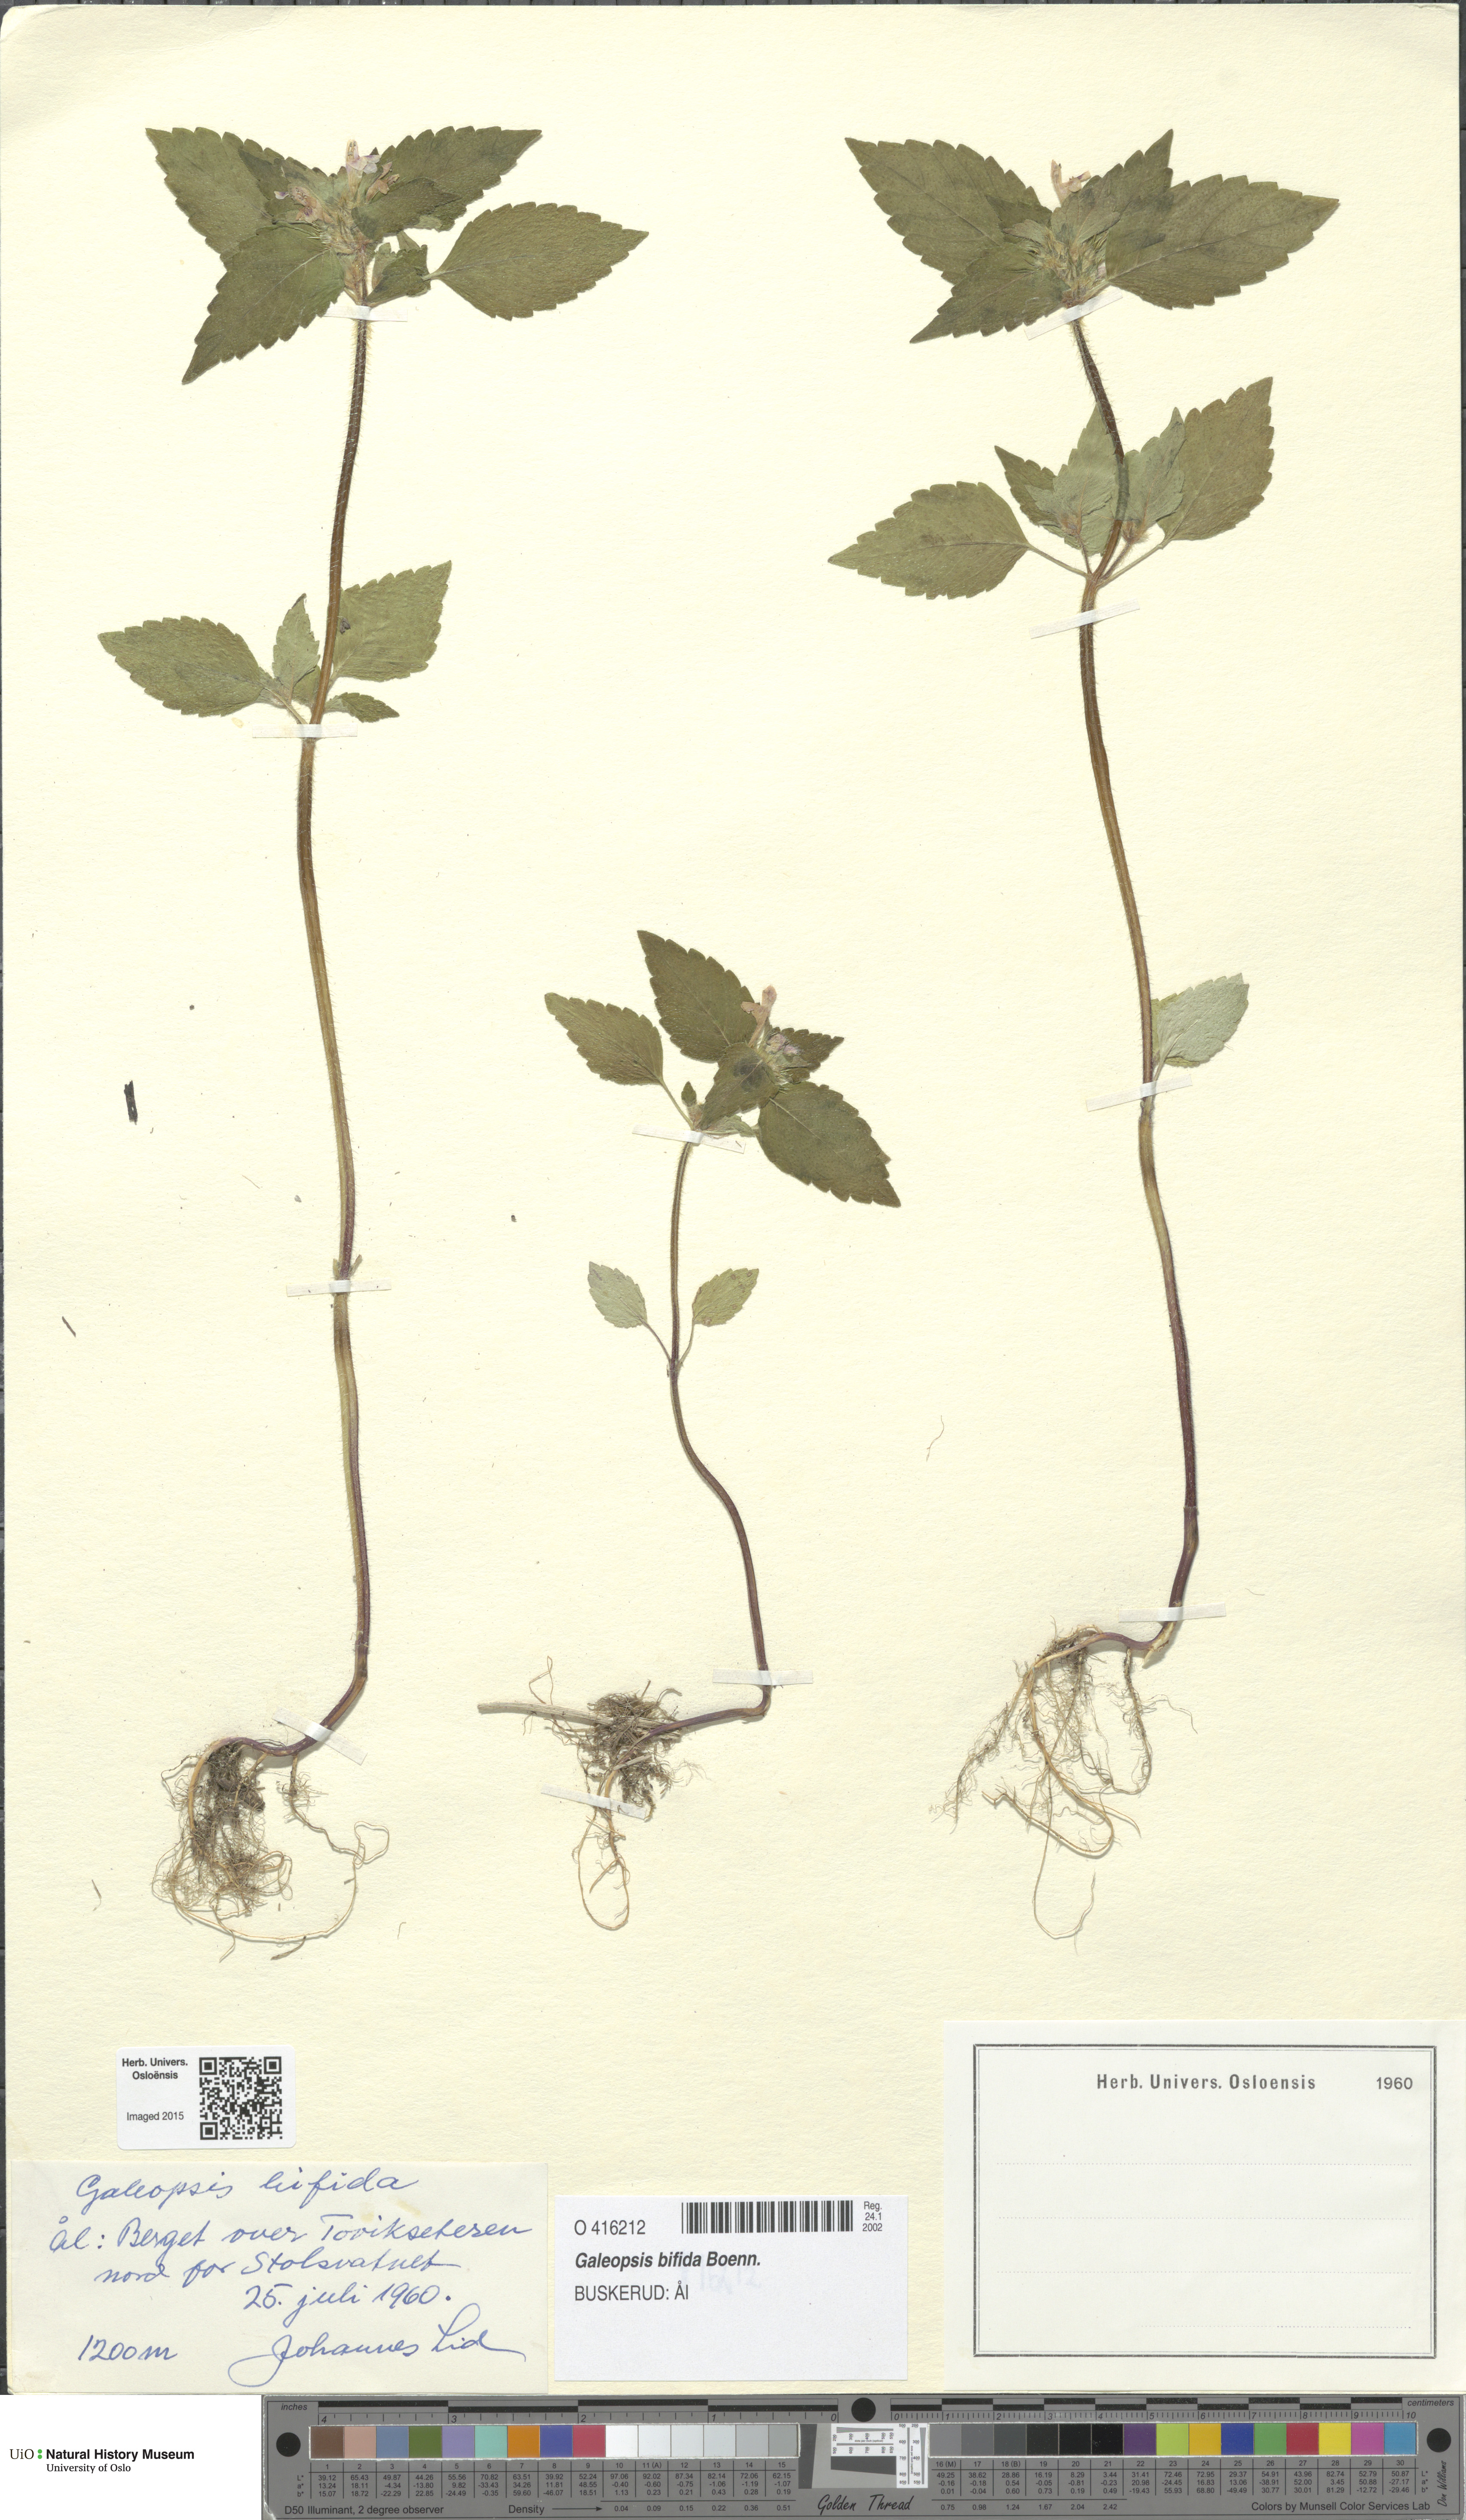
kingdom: Plantae
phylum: Tracheophyta
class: Magnoliopsida
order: Lamiales
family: Lamiaceae
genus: Galeopsis
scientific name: Galeopsis bifida
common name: Bifid hemp-nettle
